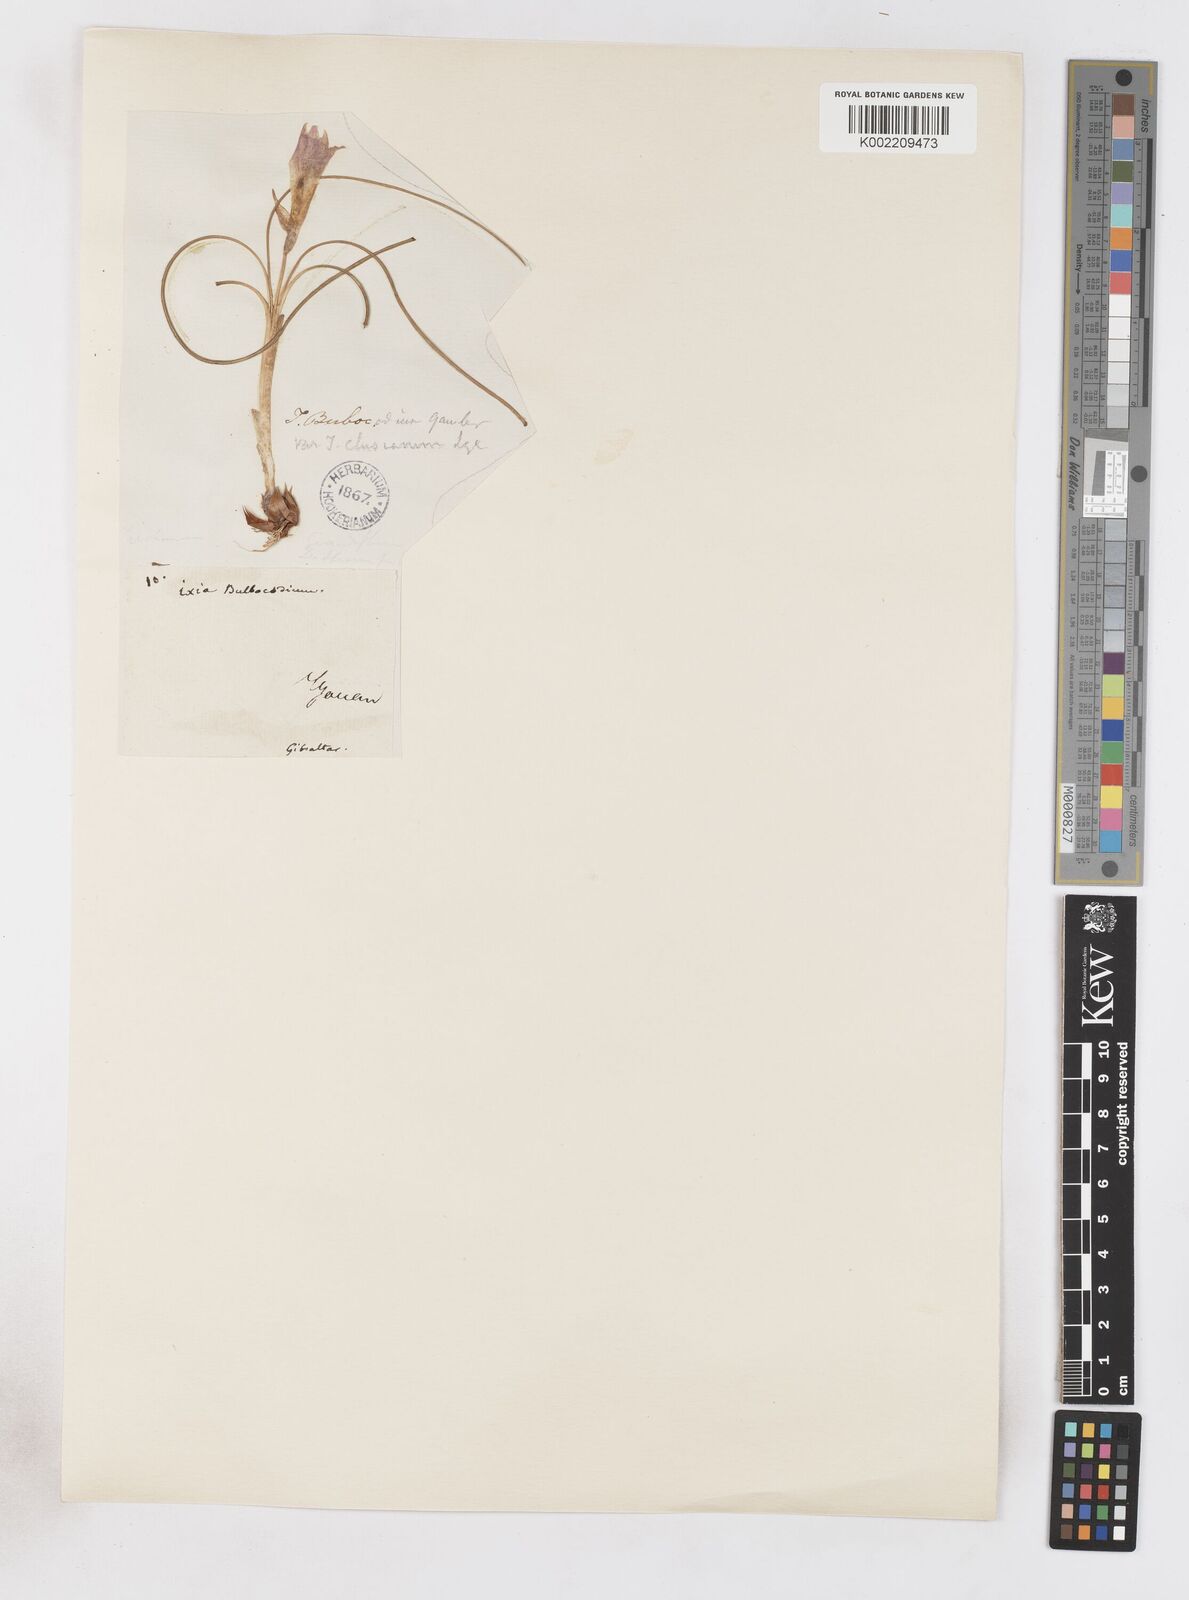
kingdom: Plantae
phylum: Tracheophyta
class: Liliopsida
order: Asparagales
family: Iridaceae
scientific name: Iridaceae
